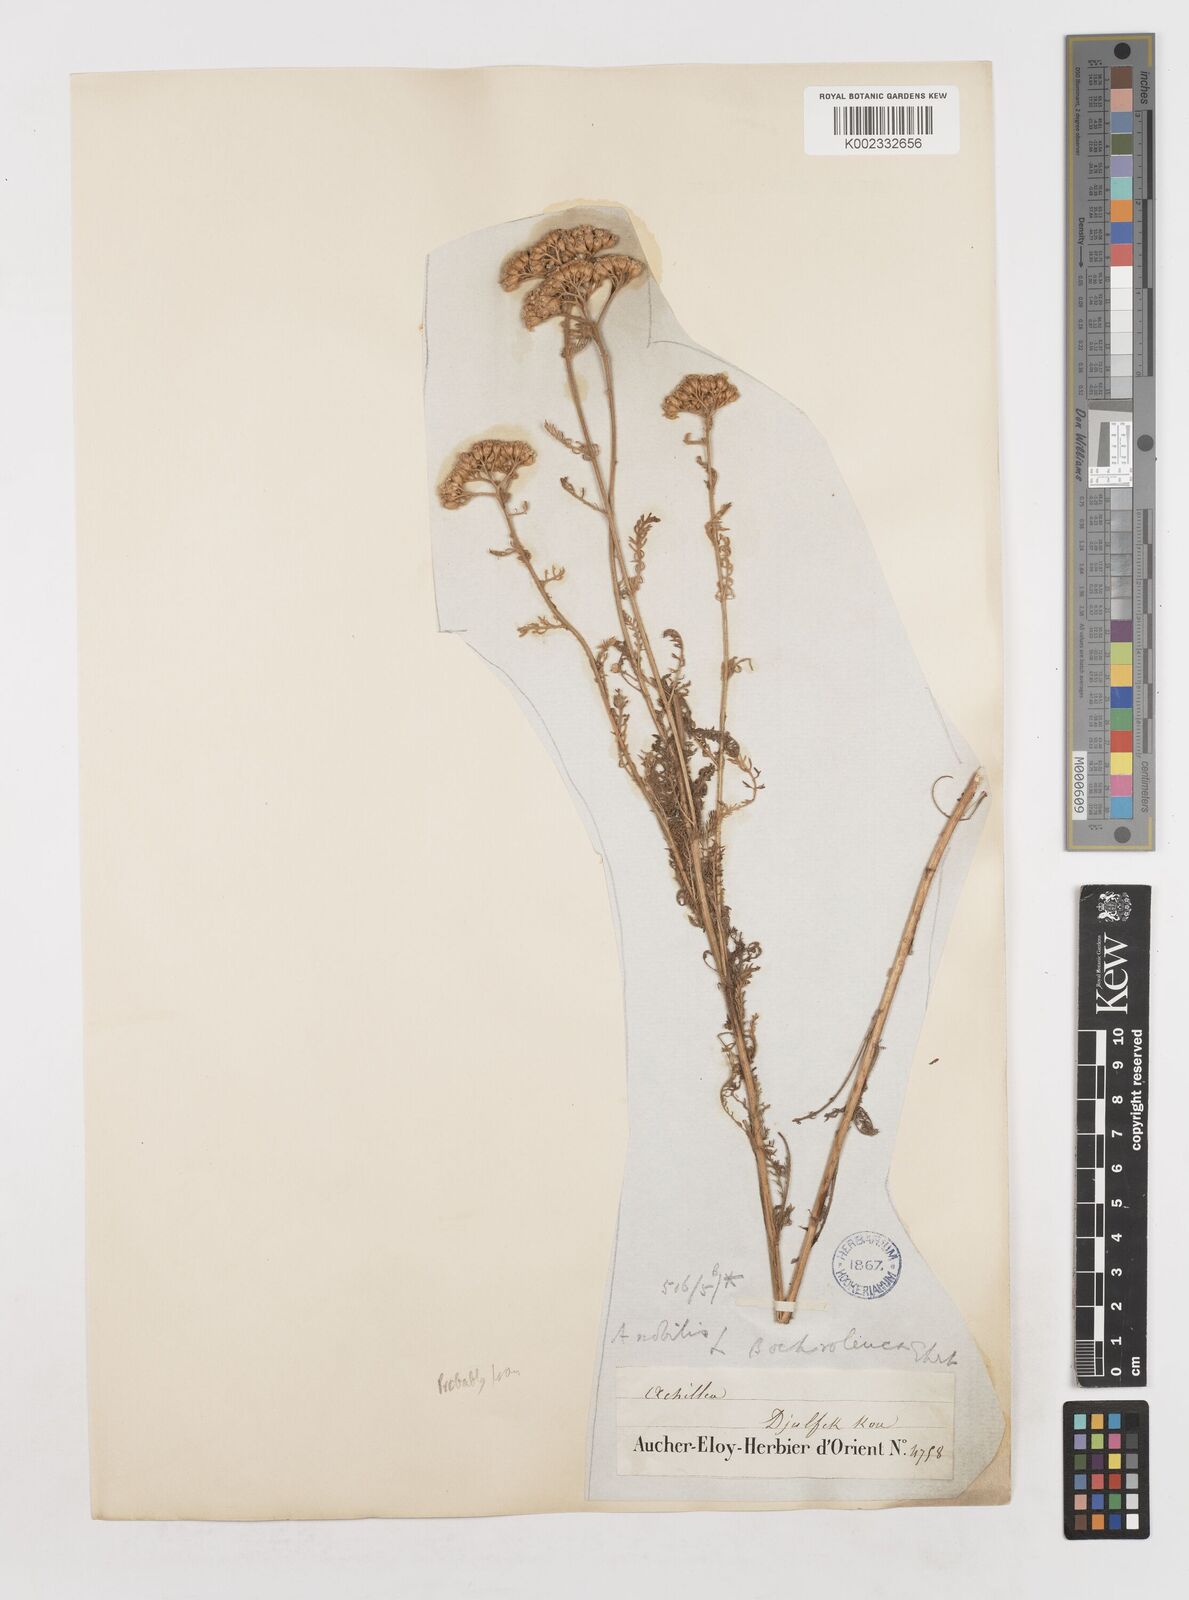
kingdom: Plantae
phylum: Tracheophyta
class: Magnoliopsida
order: Asterales
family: Asteraceae
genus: Achillea
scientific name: Achillea nobilis
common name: Noble yarrow
